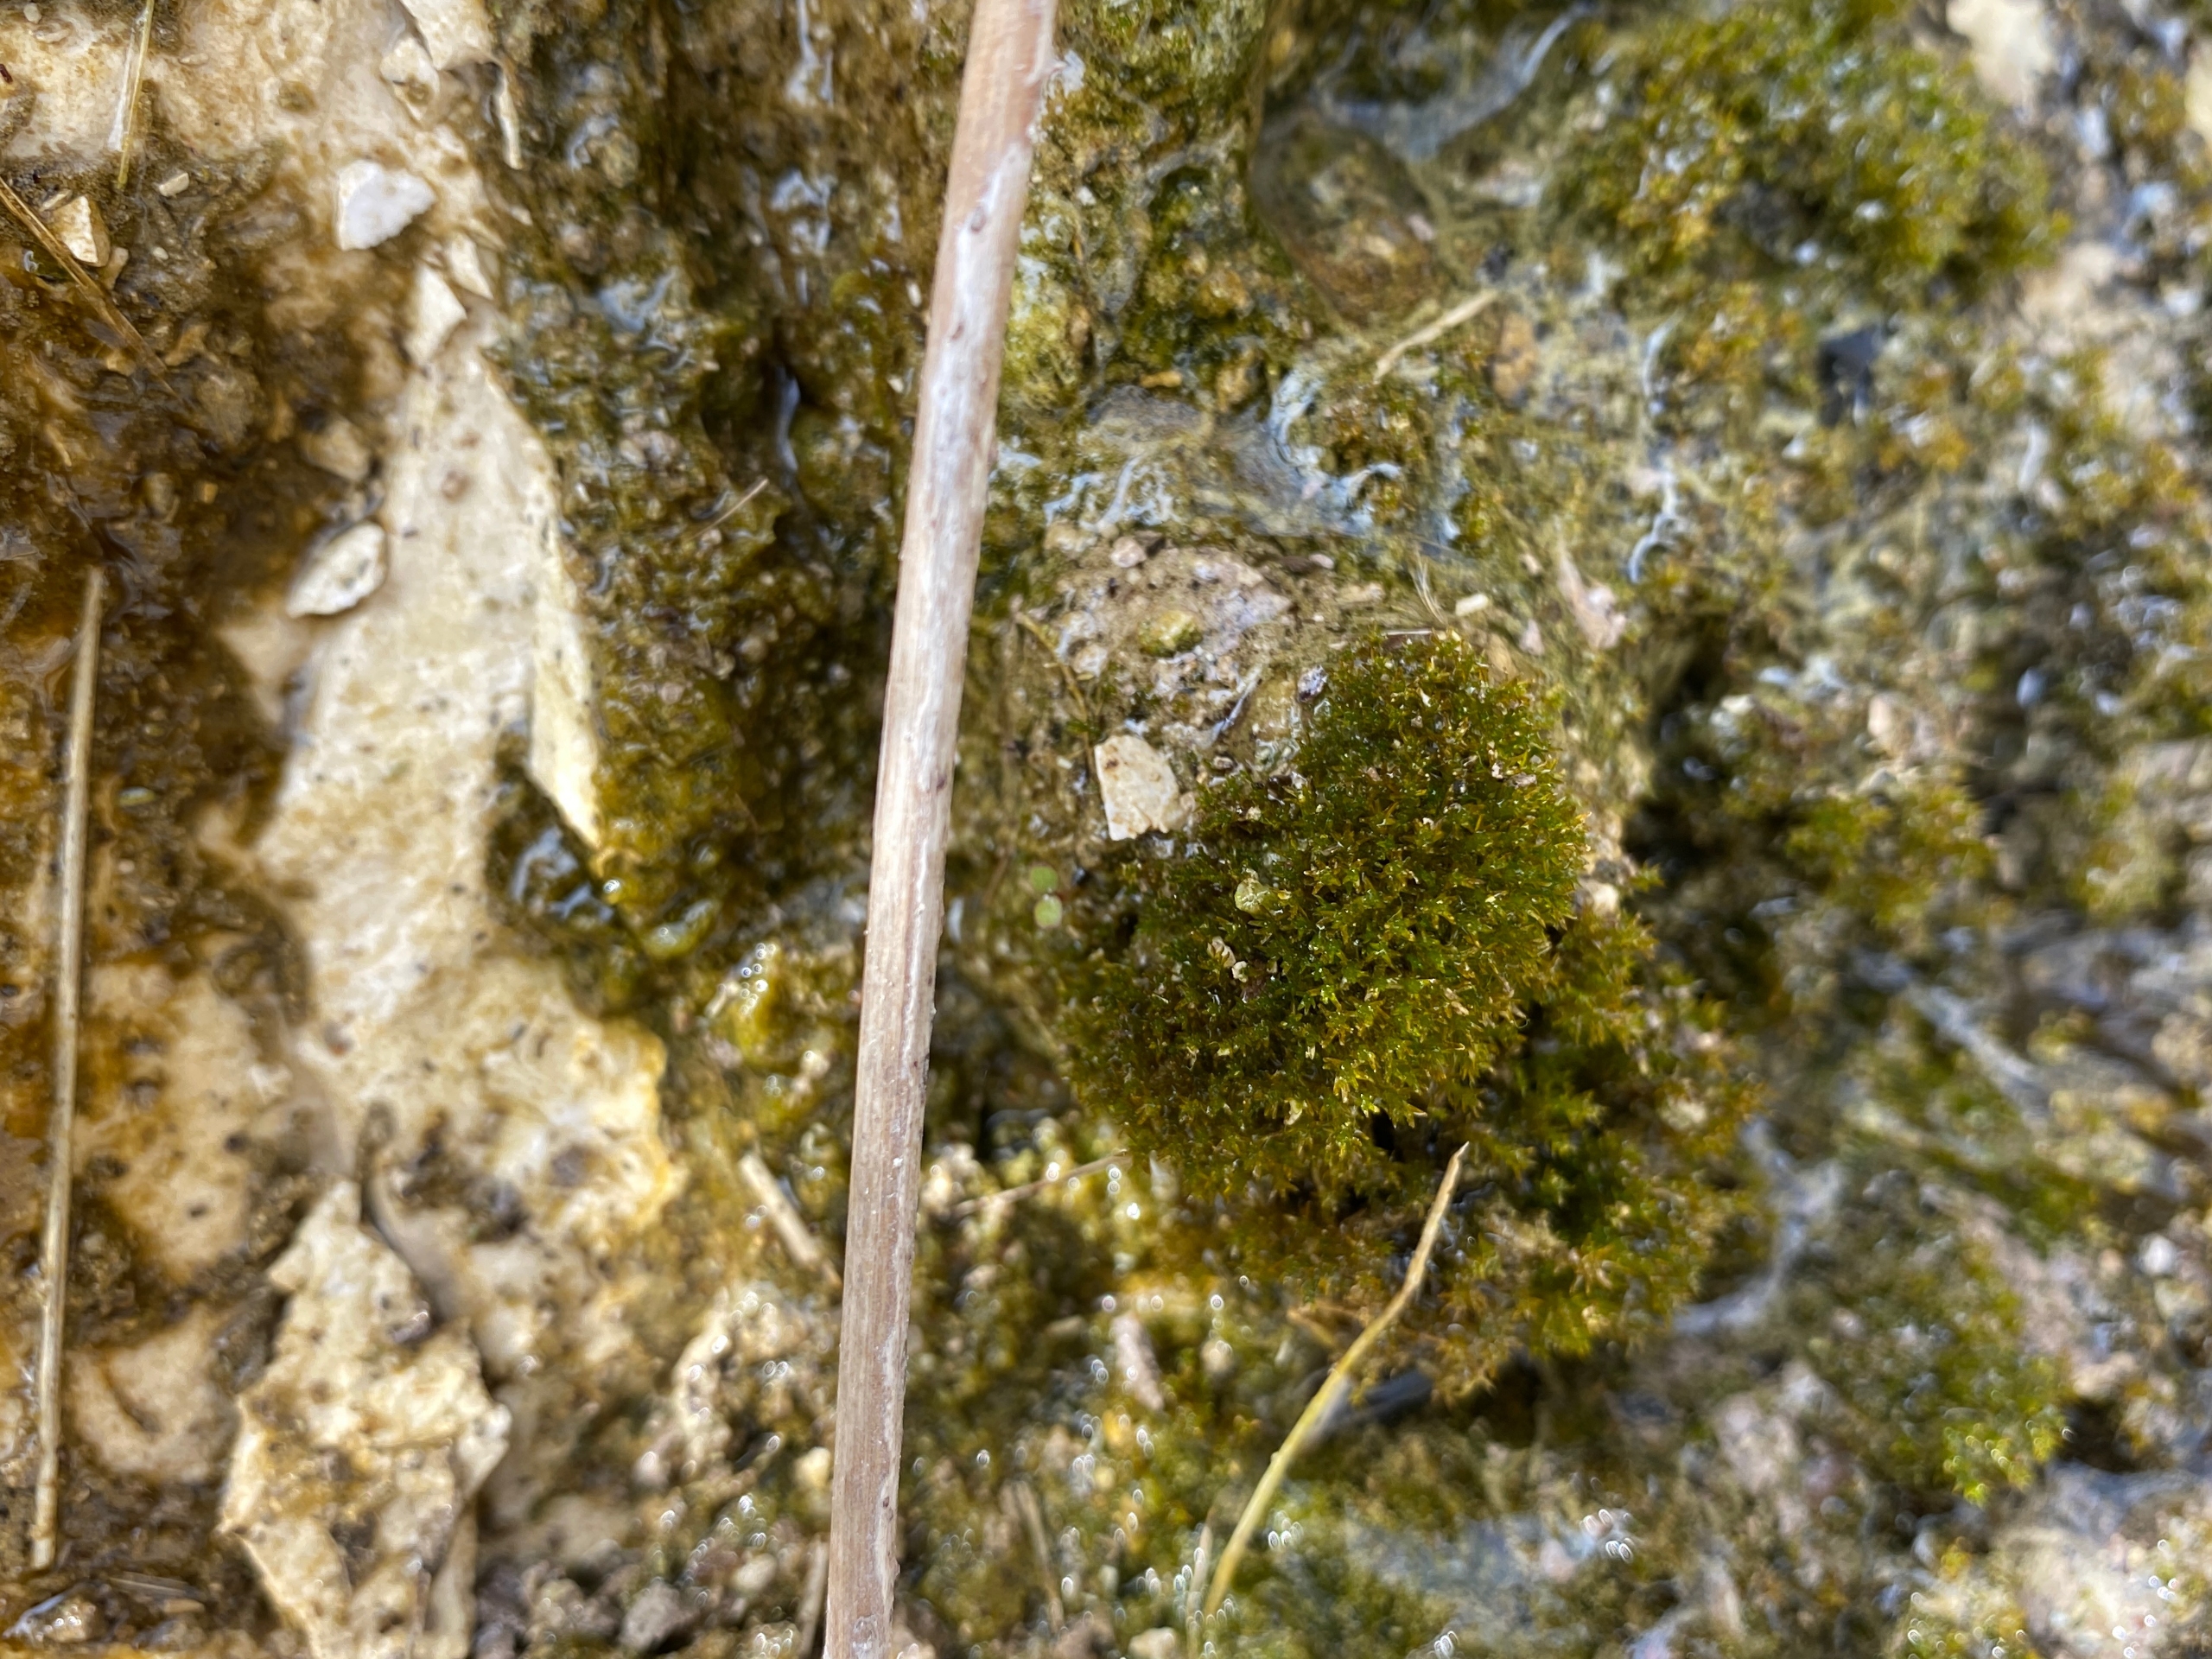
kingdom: Plantae
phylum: Bryophyta
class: Bryopsida
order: Pottiales
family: Pottiaceae
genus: Geheebia
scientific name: Geheebia tophacea
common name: Papilløs kalktuemos
